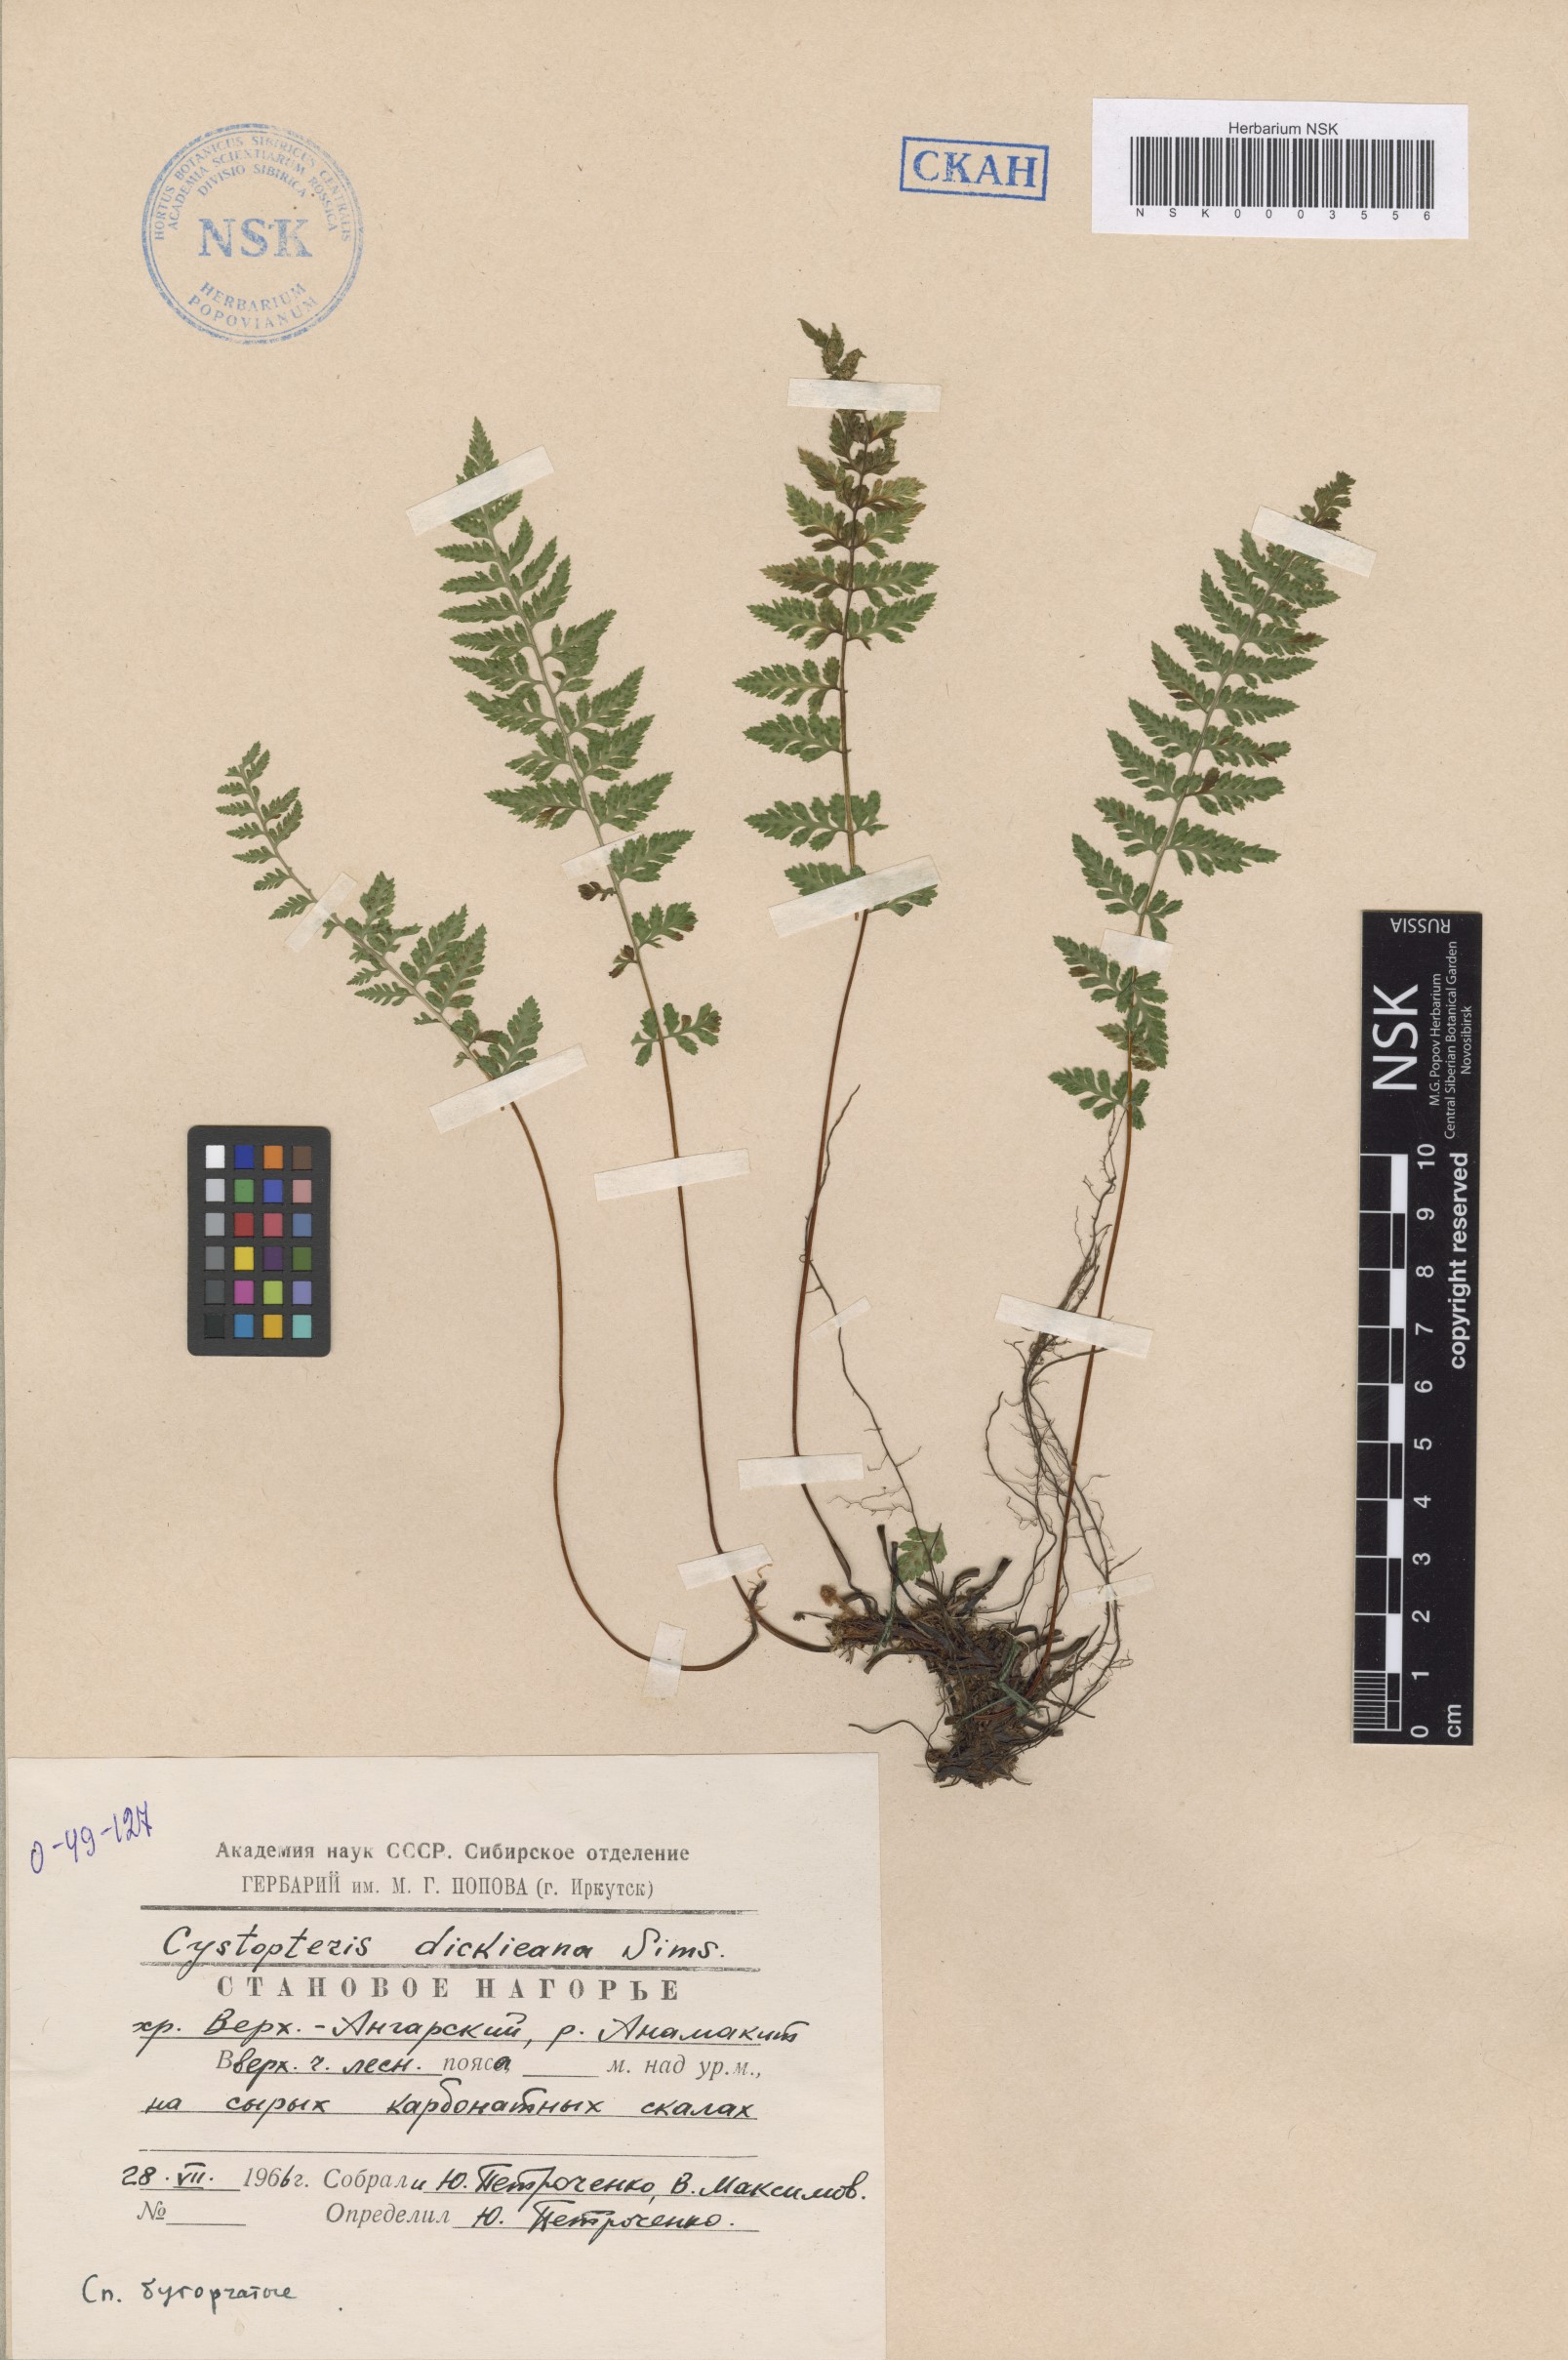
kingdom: Plantae
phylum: Tracheophyta
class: Polypodiopsida
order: Polypodiales
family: Cystopteridaceae
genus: Cystopteris
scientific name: Cystopteris dickieana
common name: Dickie's bladder-fern
